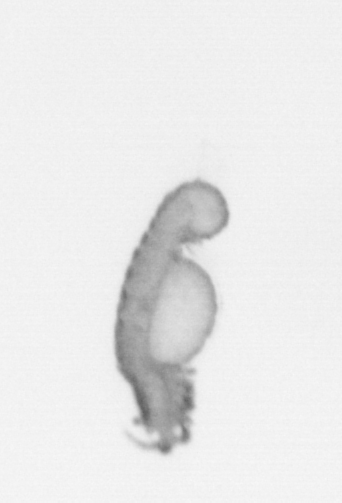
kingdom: Animalia
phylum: Annelida
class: Polychaeta
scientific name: Polychaeta
